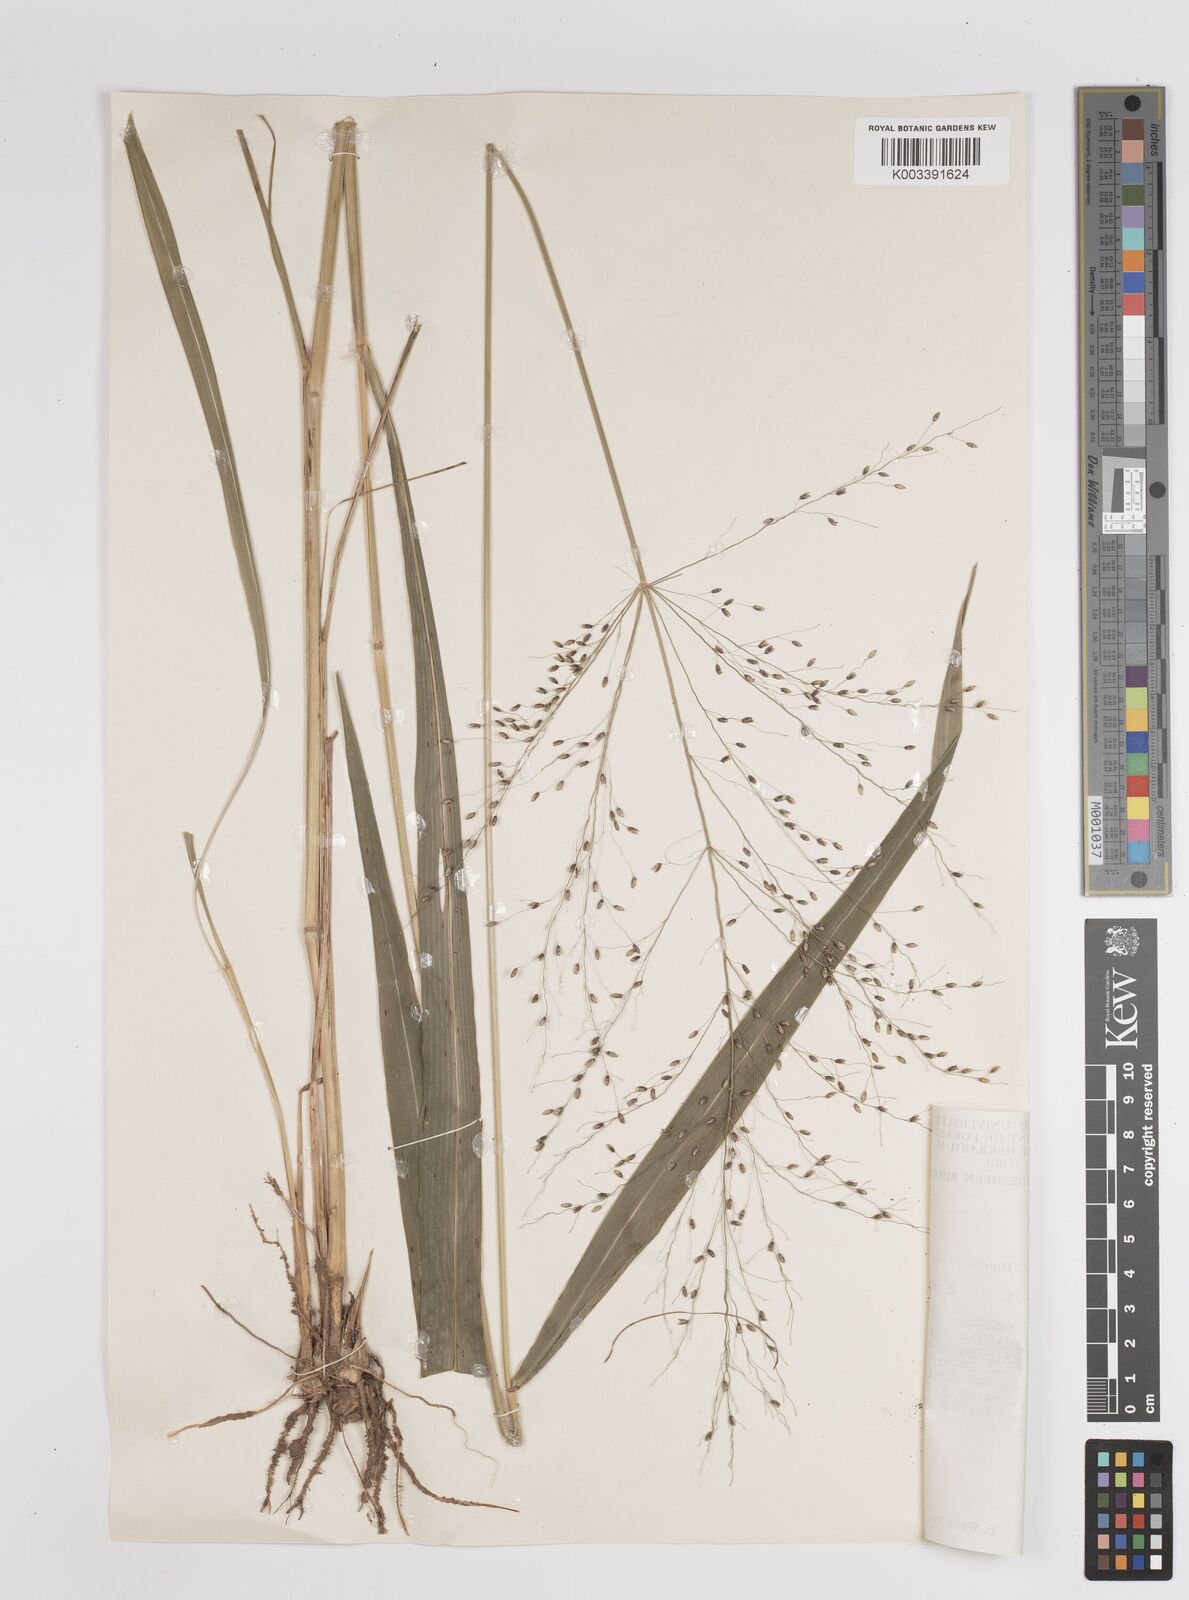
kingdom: Plantae
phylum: Tracheophyta
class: Liliopsida
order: Poales
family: Poaceae
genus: Megathyrsus
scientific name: Megathyrsus maximus
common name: Guineagrass
